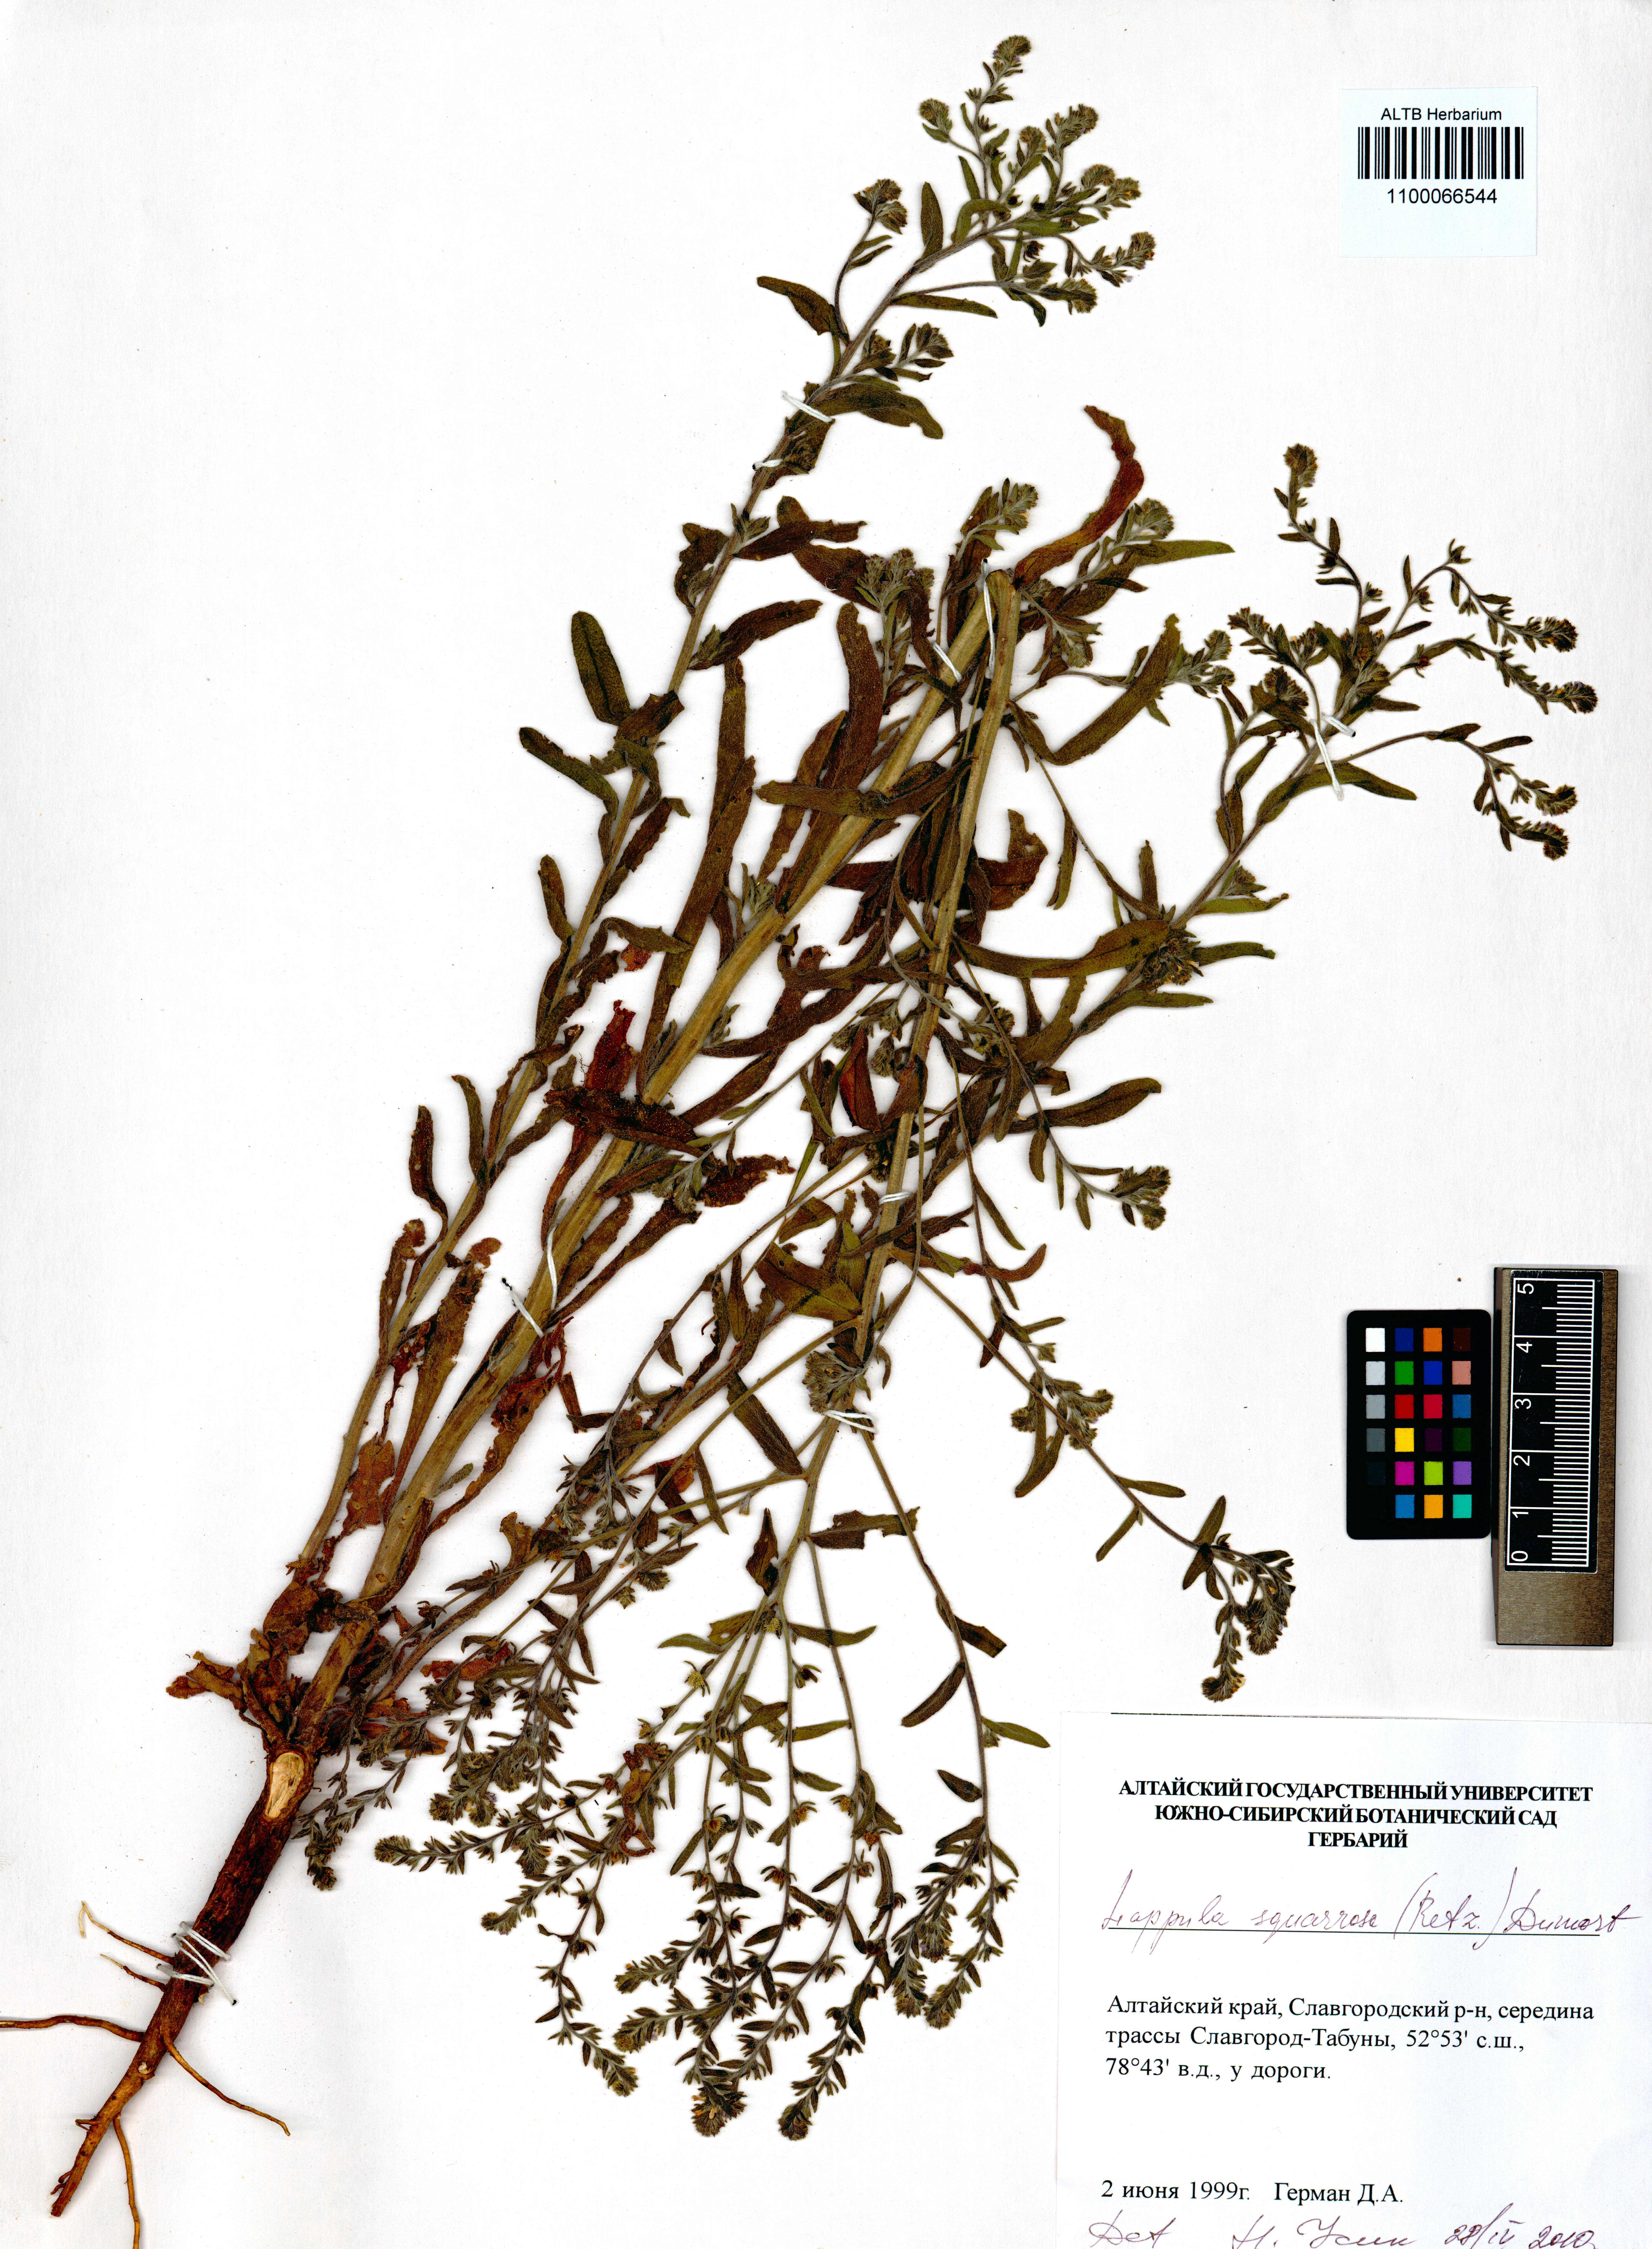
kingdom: Plantae
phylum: Tracheophyta
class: Magnoliopsida
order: Boraginales
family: Boraginaceae
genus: Lappula
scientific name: Lappula squarrosa
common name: European stickseed
